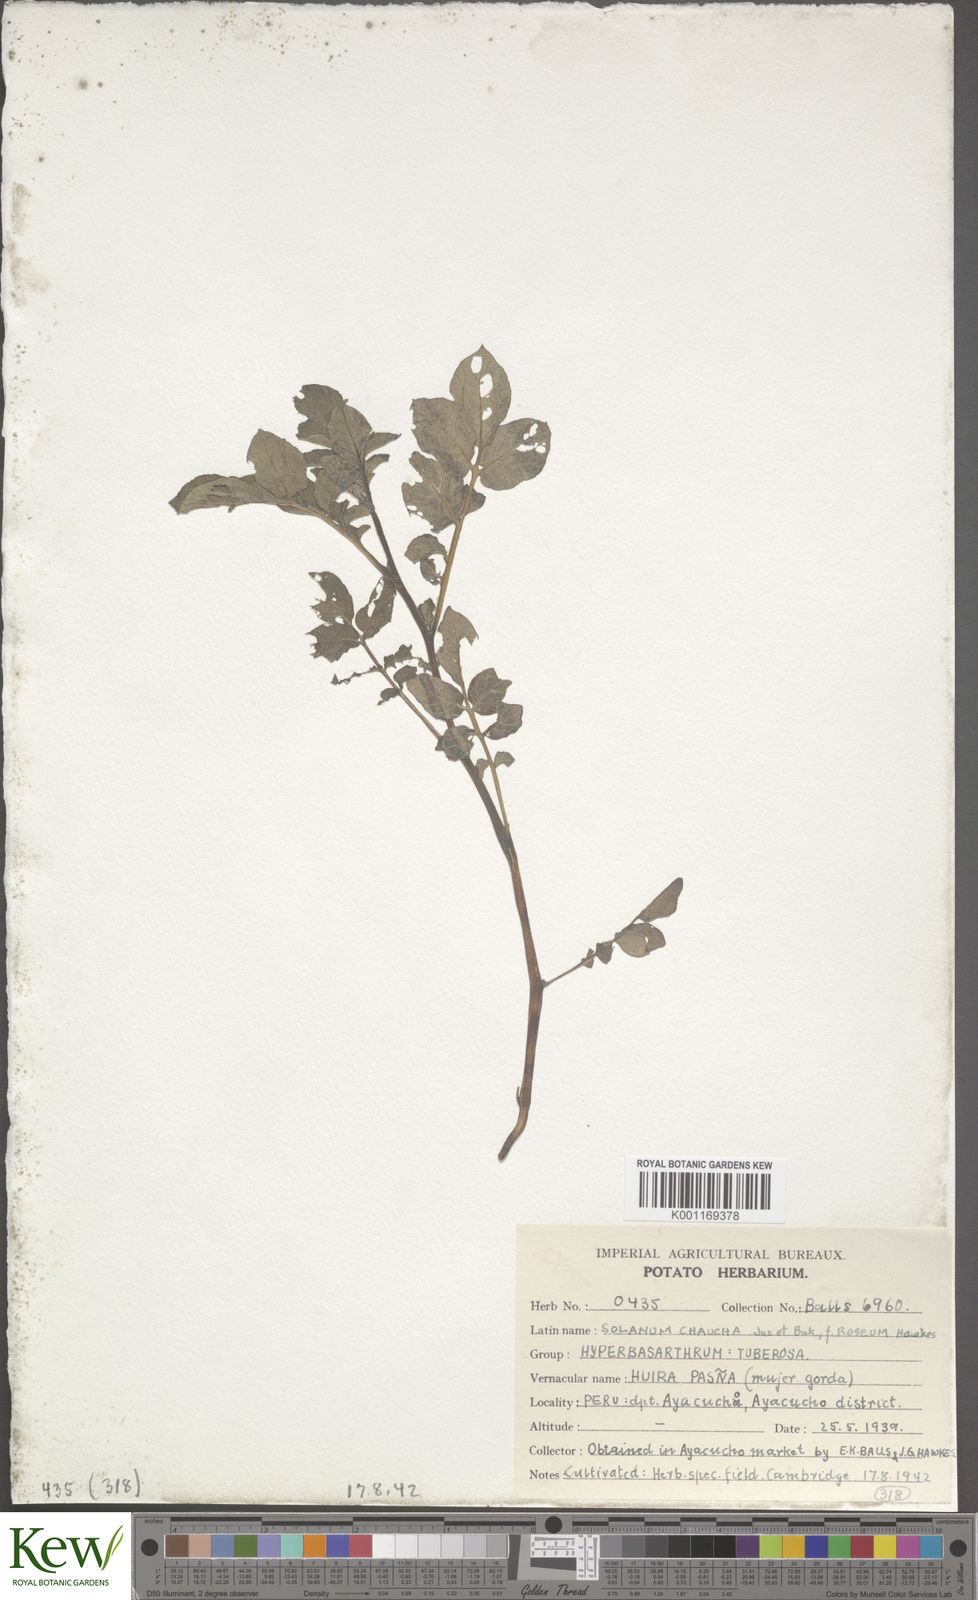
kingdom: Plantae
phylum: Tracheophyta
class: Magnoliopsida
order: Solanales
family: Solanaceae
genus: Solanum
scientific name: Solanum chaucha
